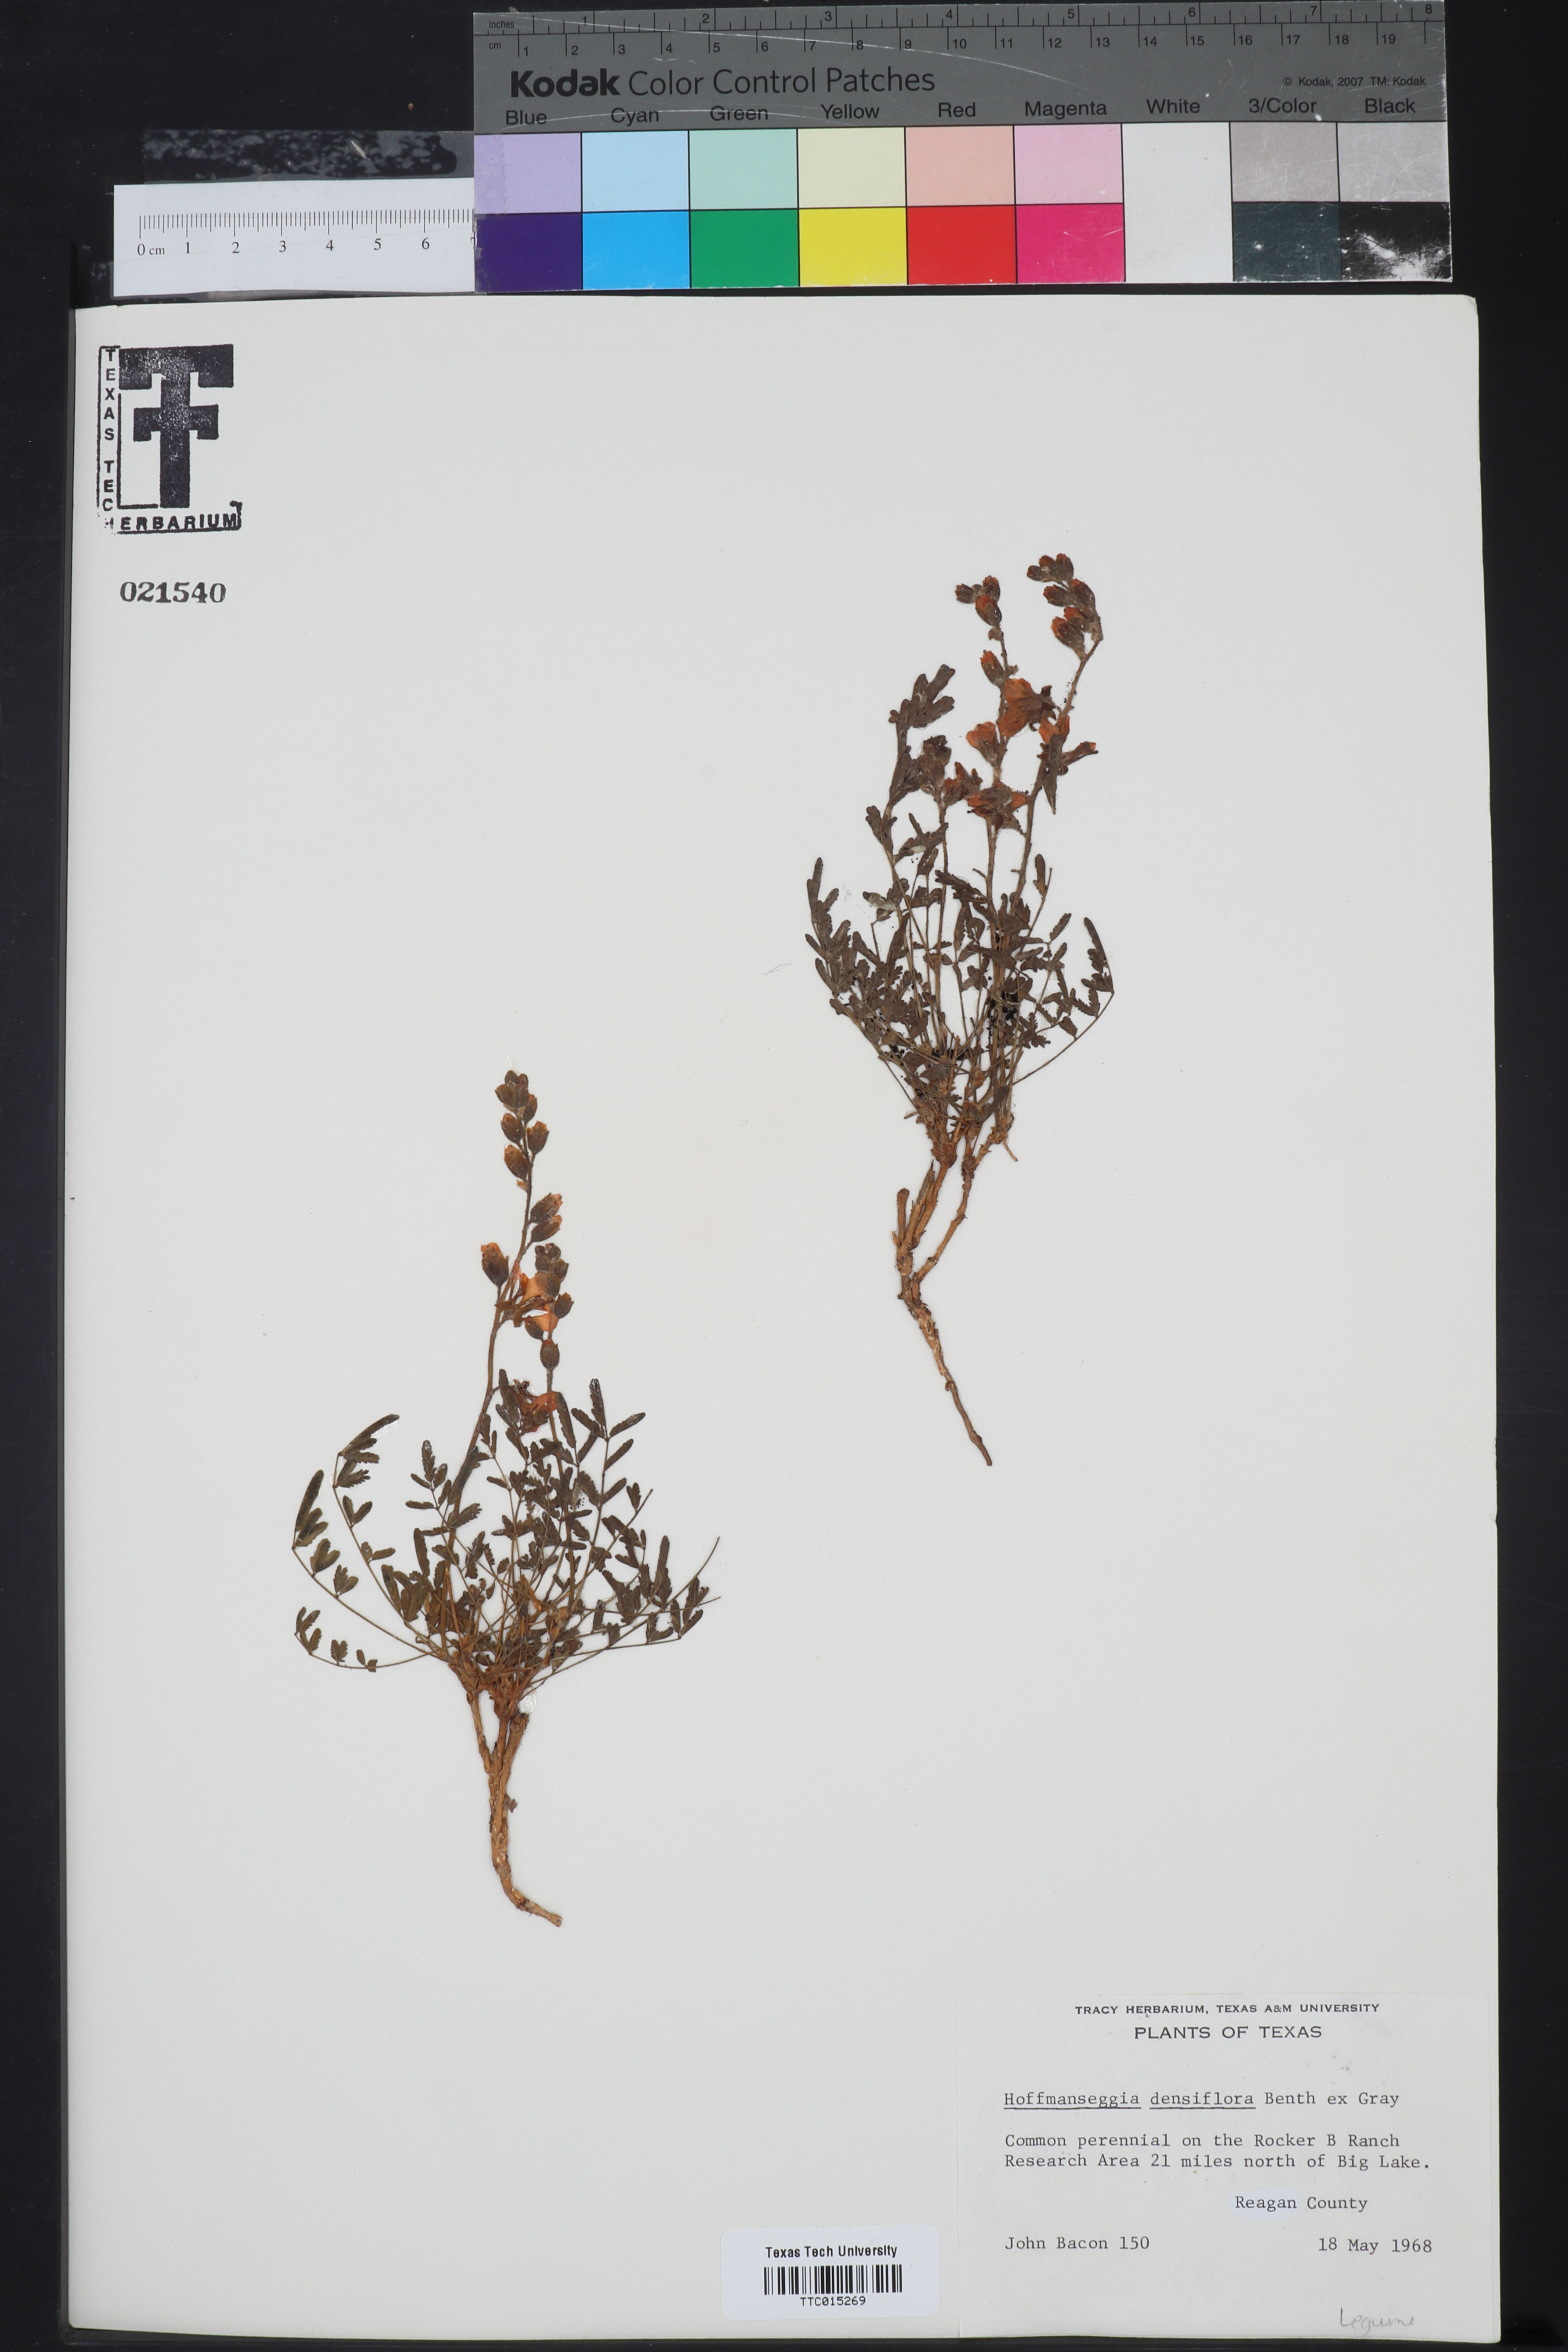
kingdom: Plantae
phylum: Tracheophyta
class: Magnoliopsida
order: Fabales
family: Fabaceae
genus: Hoffmannseggia
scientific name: Hoffmannseggia glauca
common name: Pignut
